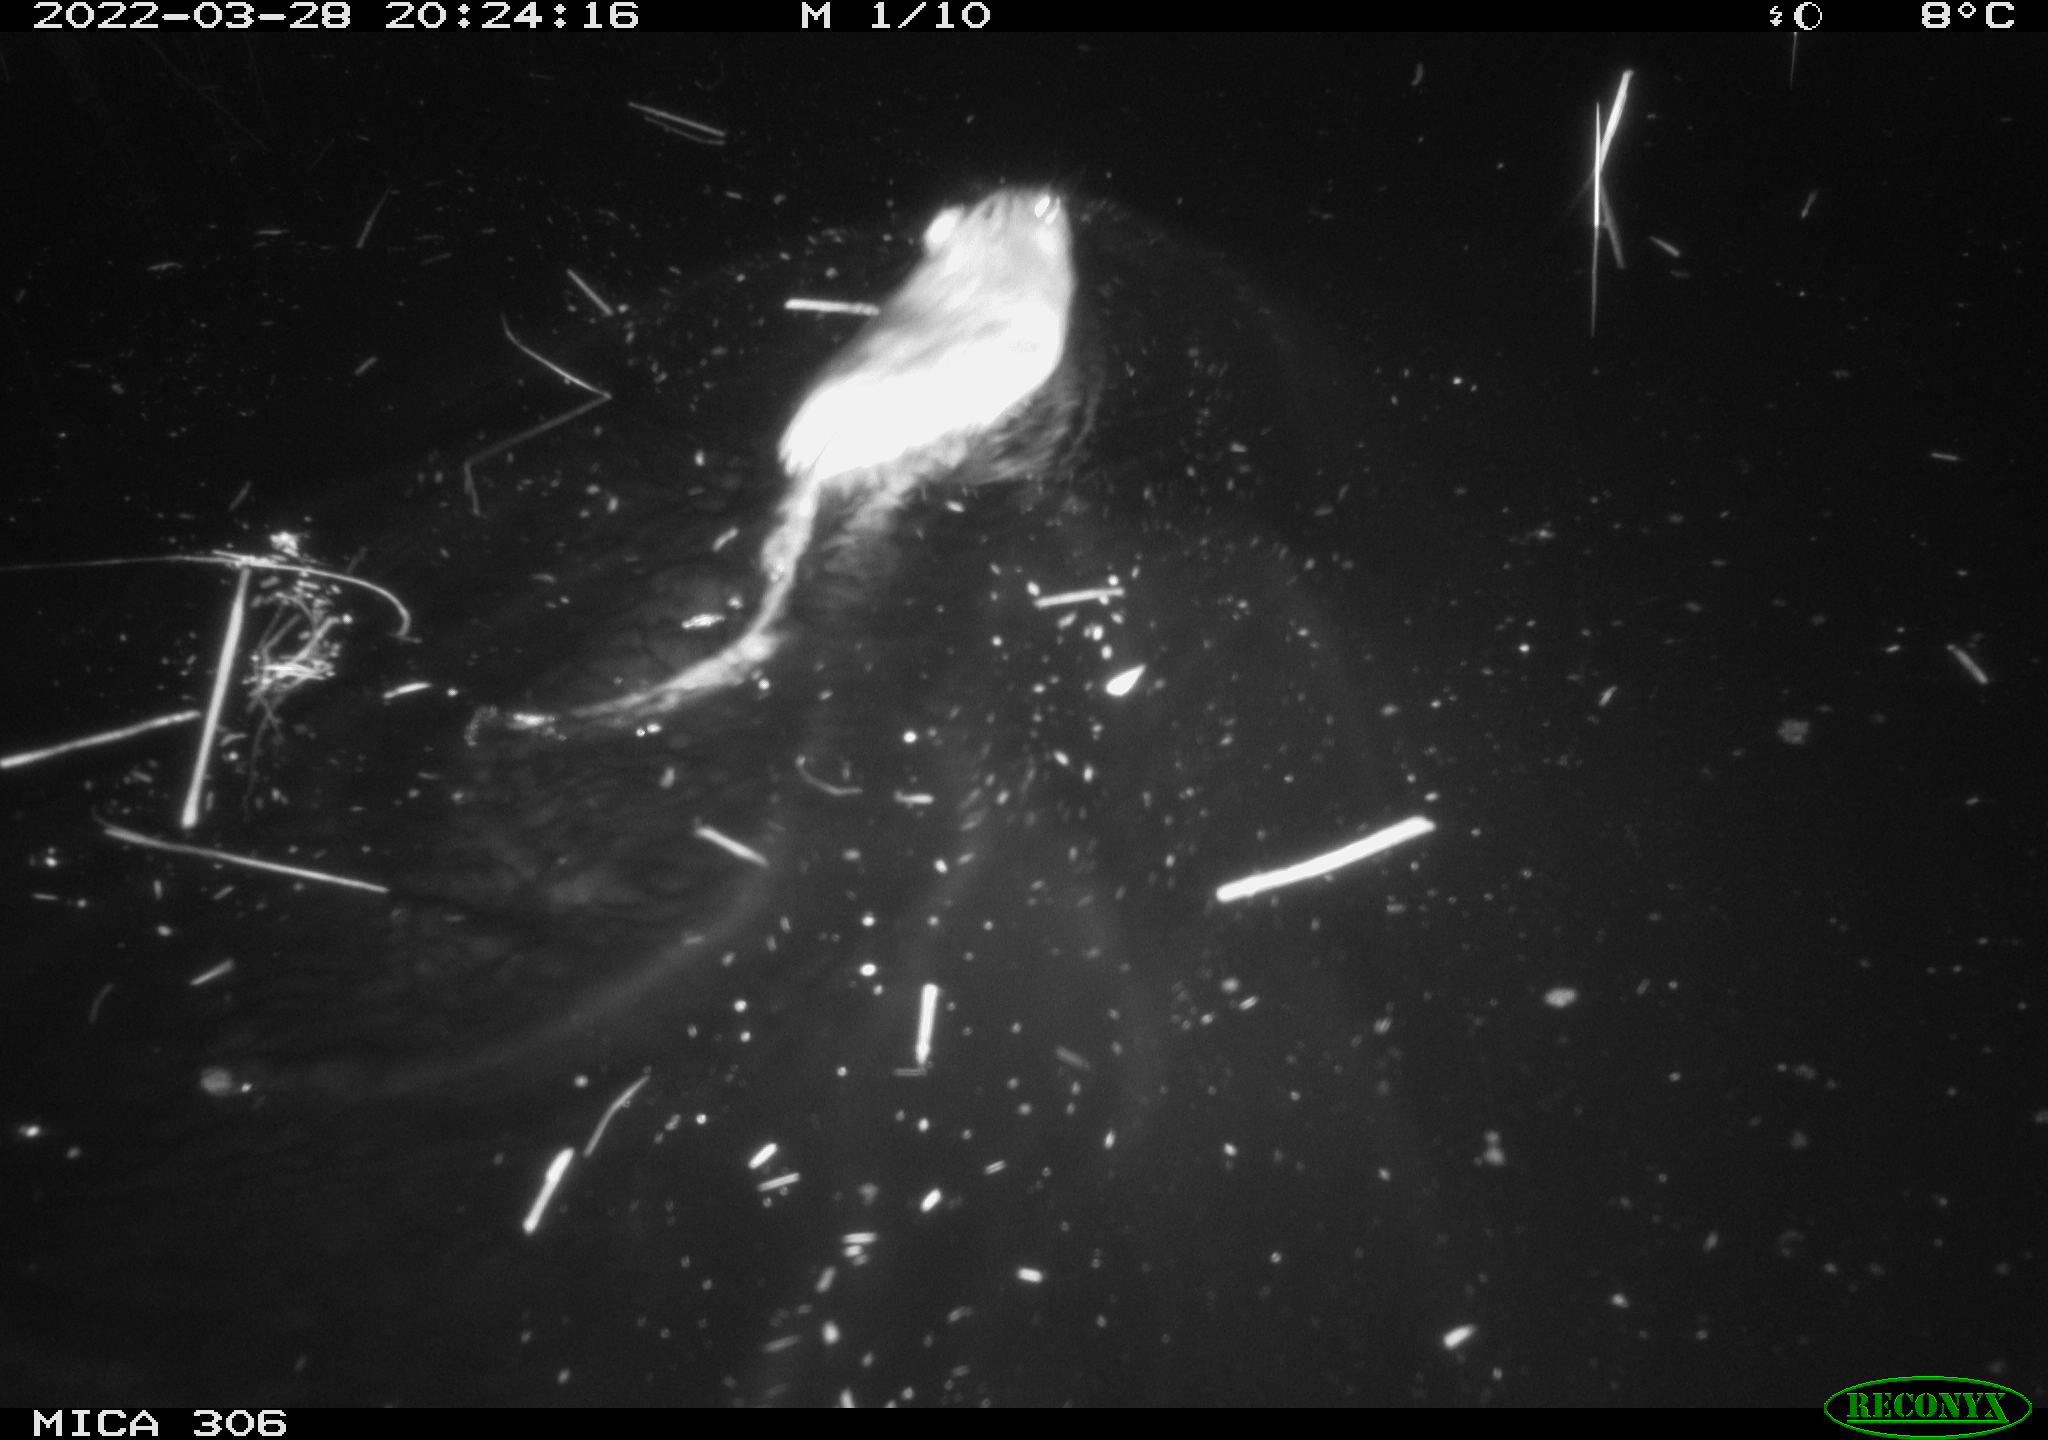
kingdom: Animalia
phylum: Chordata
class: Mammalia
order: Rodentia
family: Cricetidae
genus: Ondatra
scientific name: Ondatra zibethicus
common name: Muskrat
